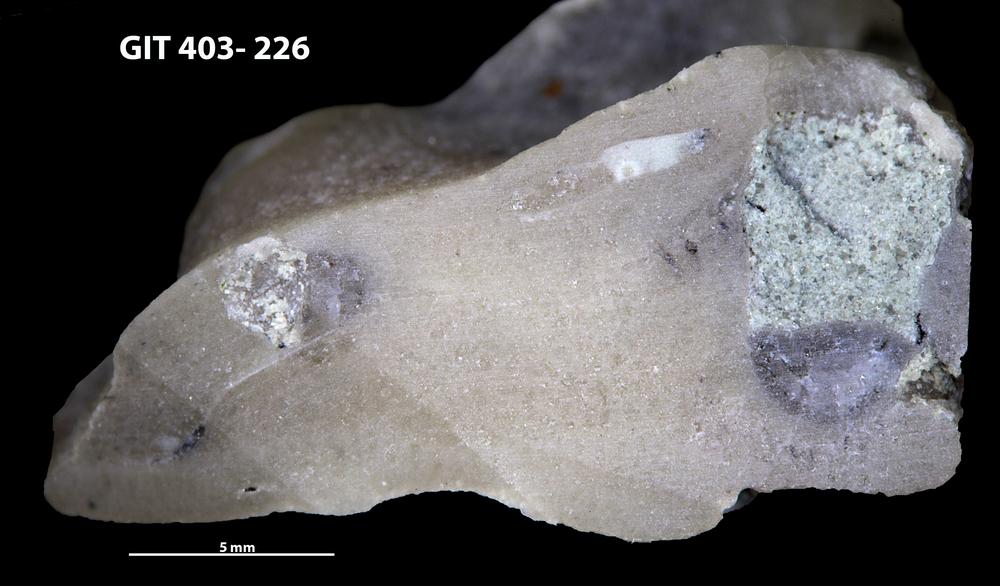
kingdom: Animalia
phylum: Bryozoa
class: Stenolaemata
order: Cystoporida
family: Fistuliporidae
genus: Fistulipora
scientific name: Fistulipora przhidolensis
